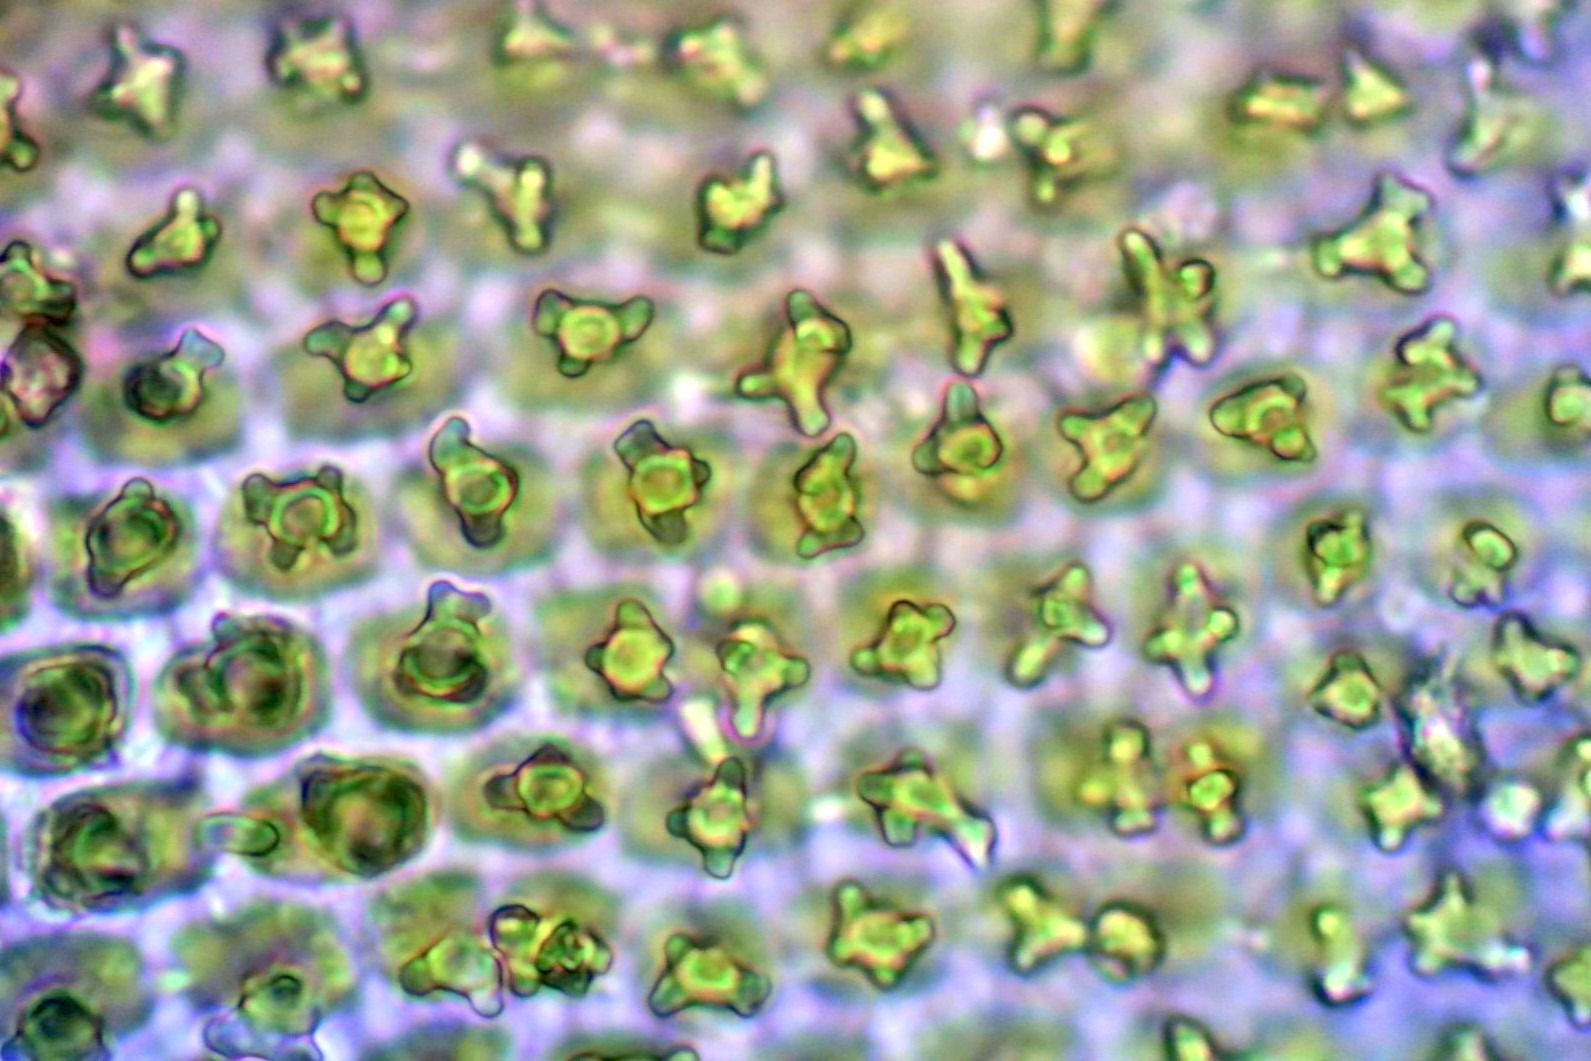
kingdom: Plantae
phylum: Bryophyta
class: Bryopsida
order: Hedwigiales
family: Hedwigiaceae
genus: Hedwigia
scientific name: Hedwigia stellata
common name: Stjernebladet hedwigia
